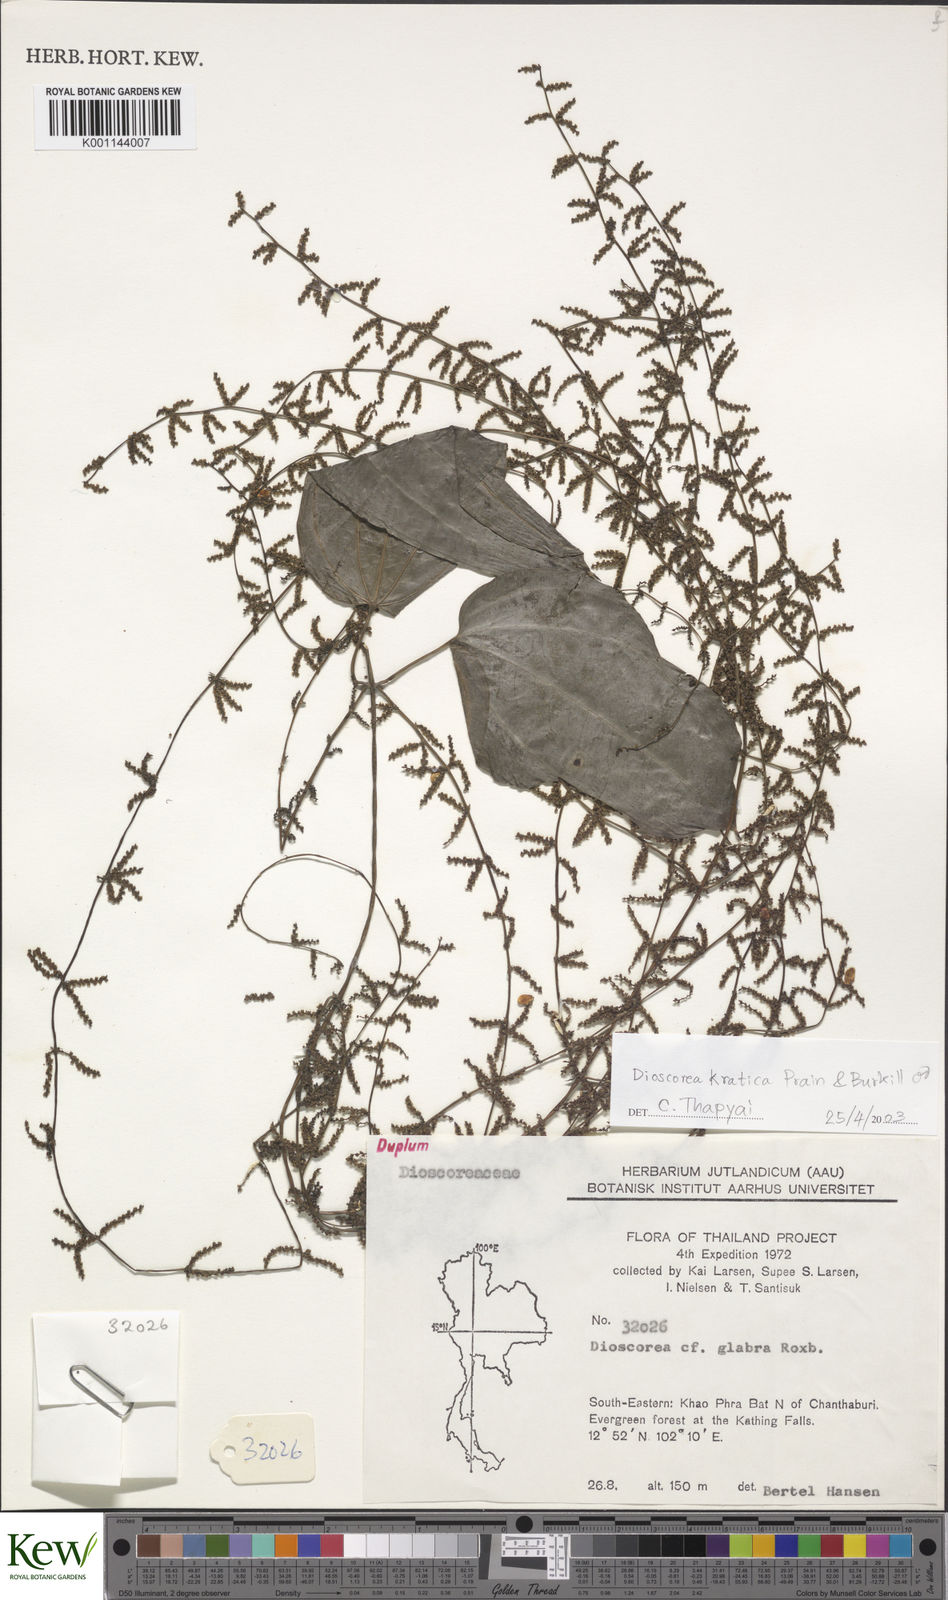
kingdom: Plantae
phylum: Tracheophyta
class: Liliopsida
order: Dioscoreales
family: Dioscoreaceae
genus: Dioscorea
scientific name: Dioscorea kratica
